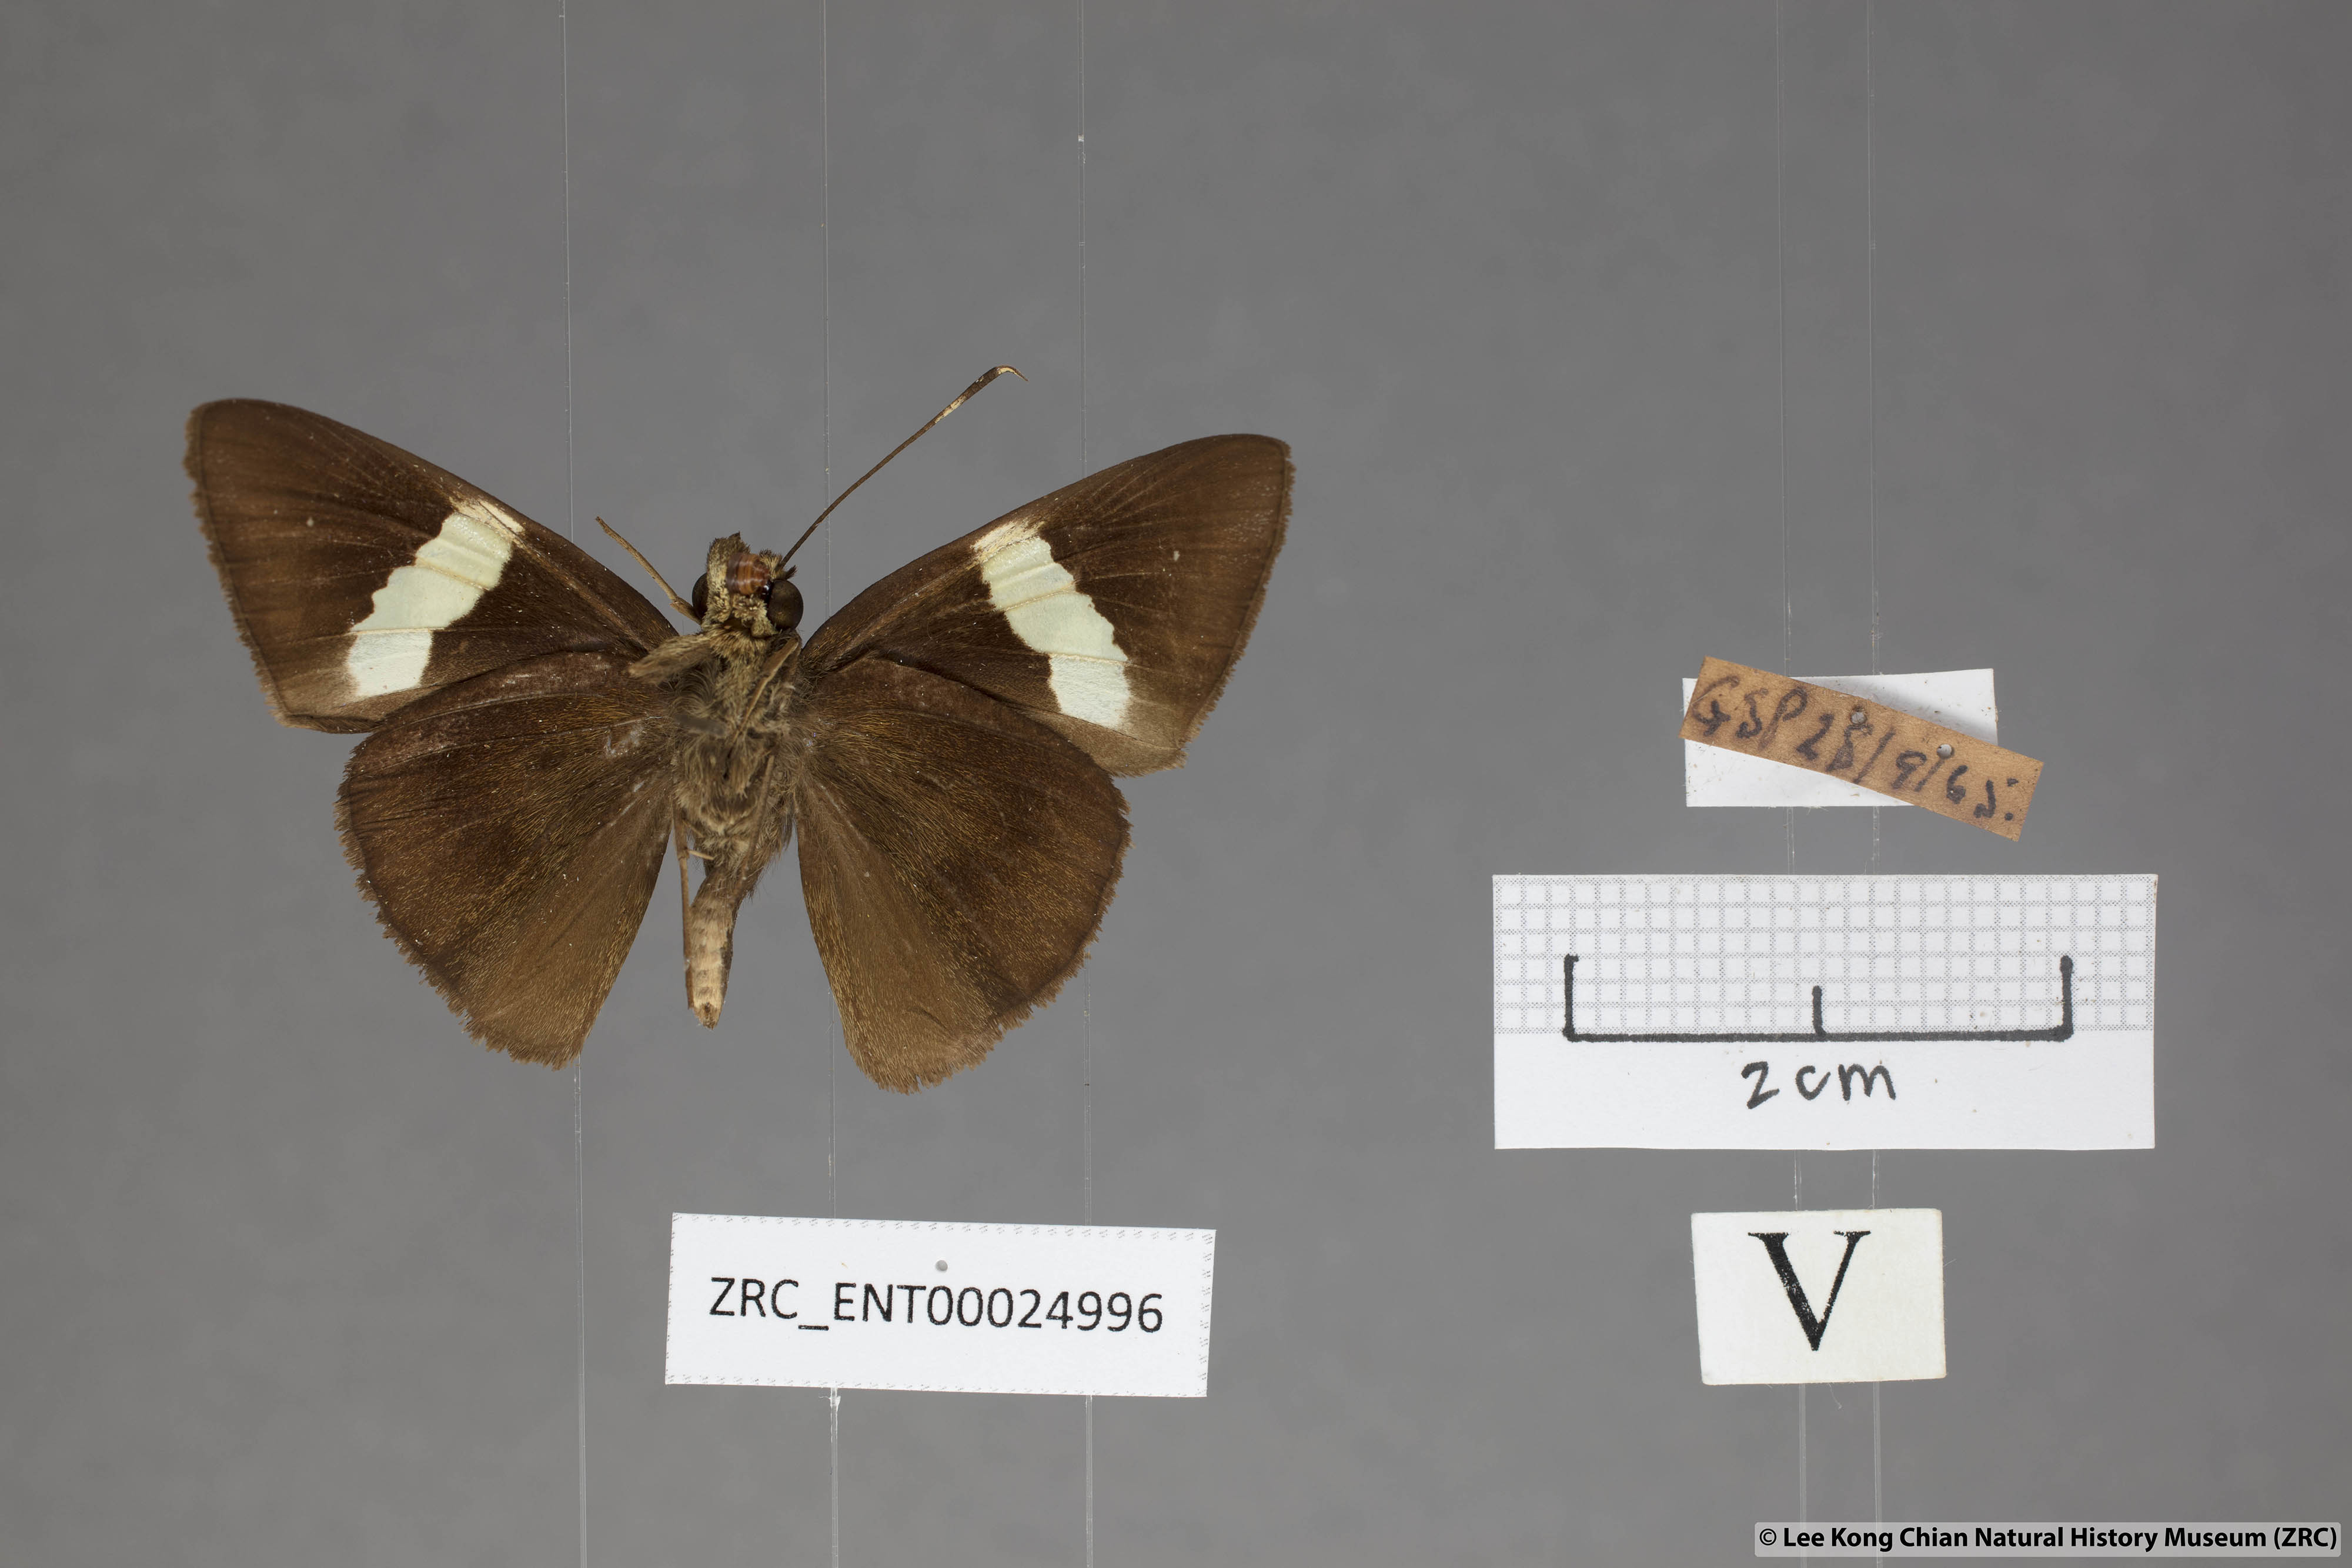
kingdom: Animalia
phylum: Arthropoda
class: Insecta
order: Lepidoptera
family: Hesperiidae
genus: Notocrypta
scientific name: Notocrypta clavata
